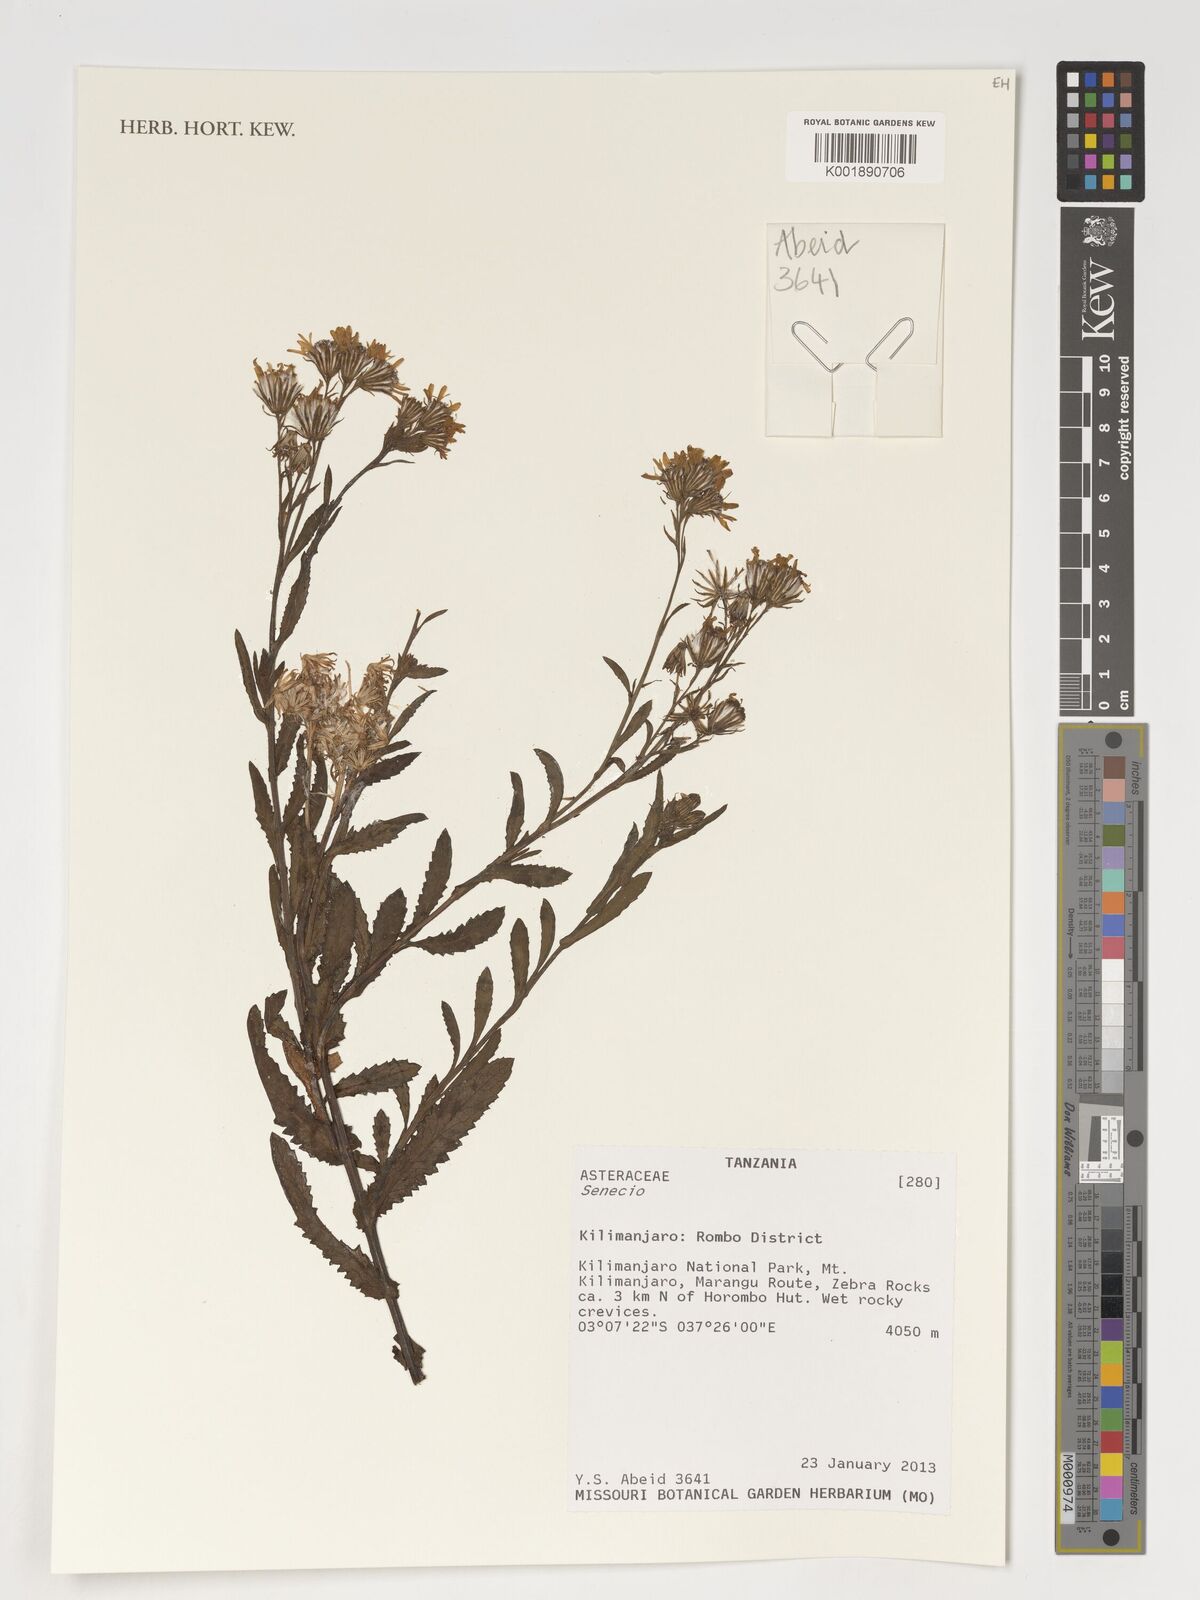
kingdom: Plantae
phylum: Tracheophyta
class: Magnoliopsida
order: Asterales
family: Asteraceae
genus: Senecio
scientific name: Senecio
